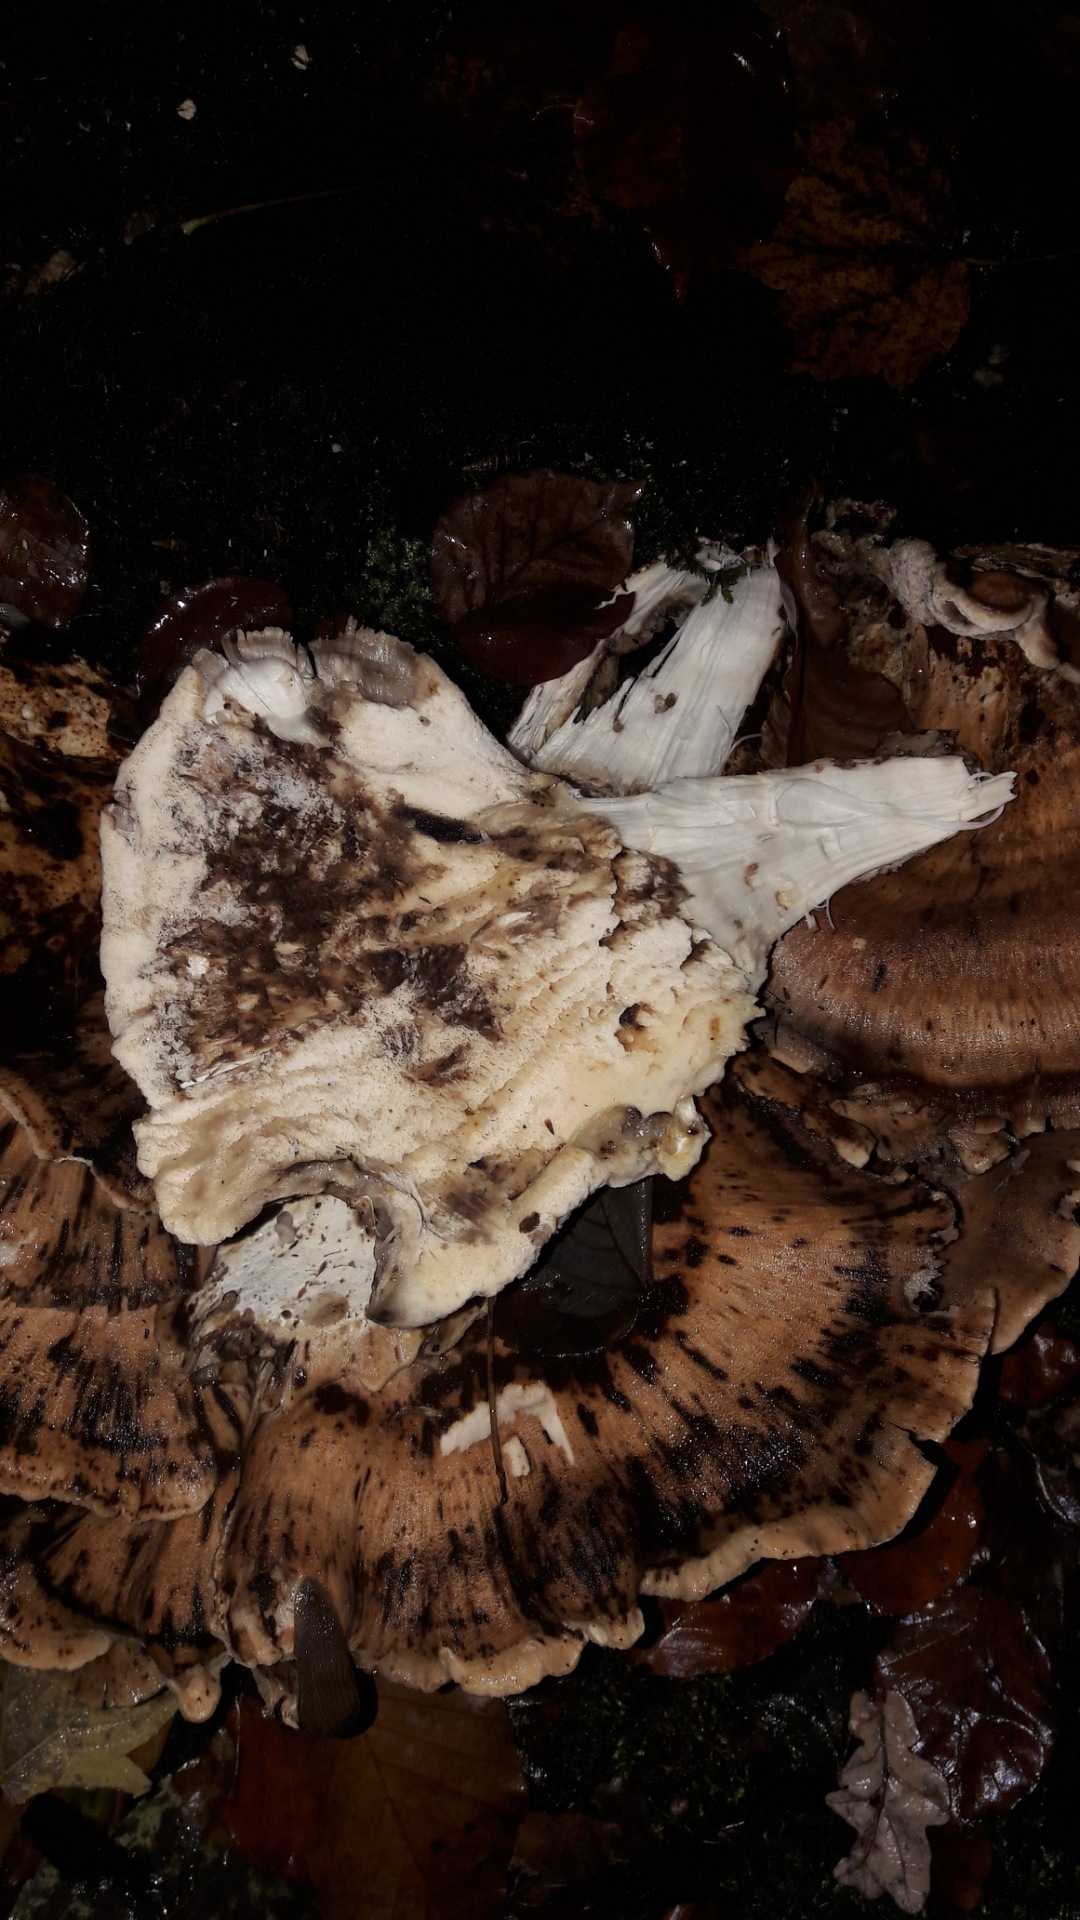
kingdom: Fungi
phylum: Basidiomycota
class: Agaricomycetes
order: Polyporales
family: Meripilaceae
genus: Meripilus
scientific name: Meripilus giganteus
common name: kæmpeporesvamp
